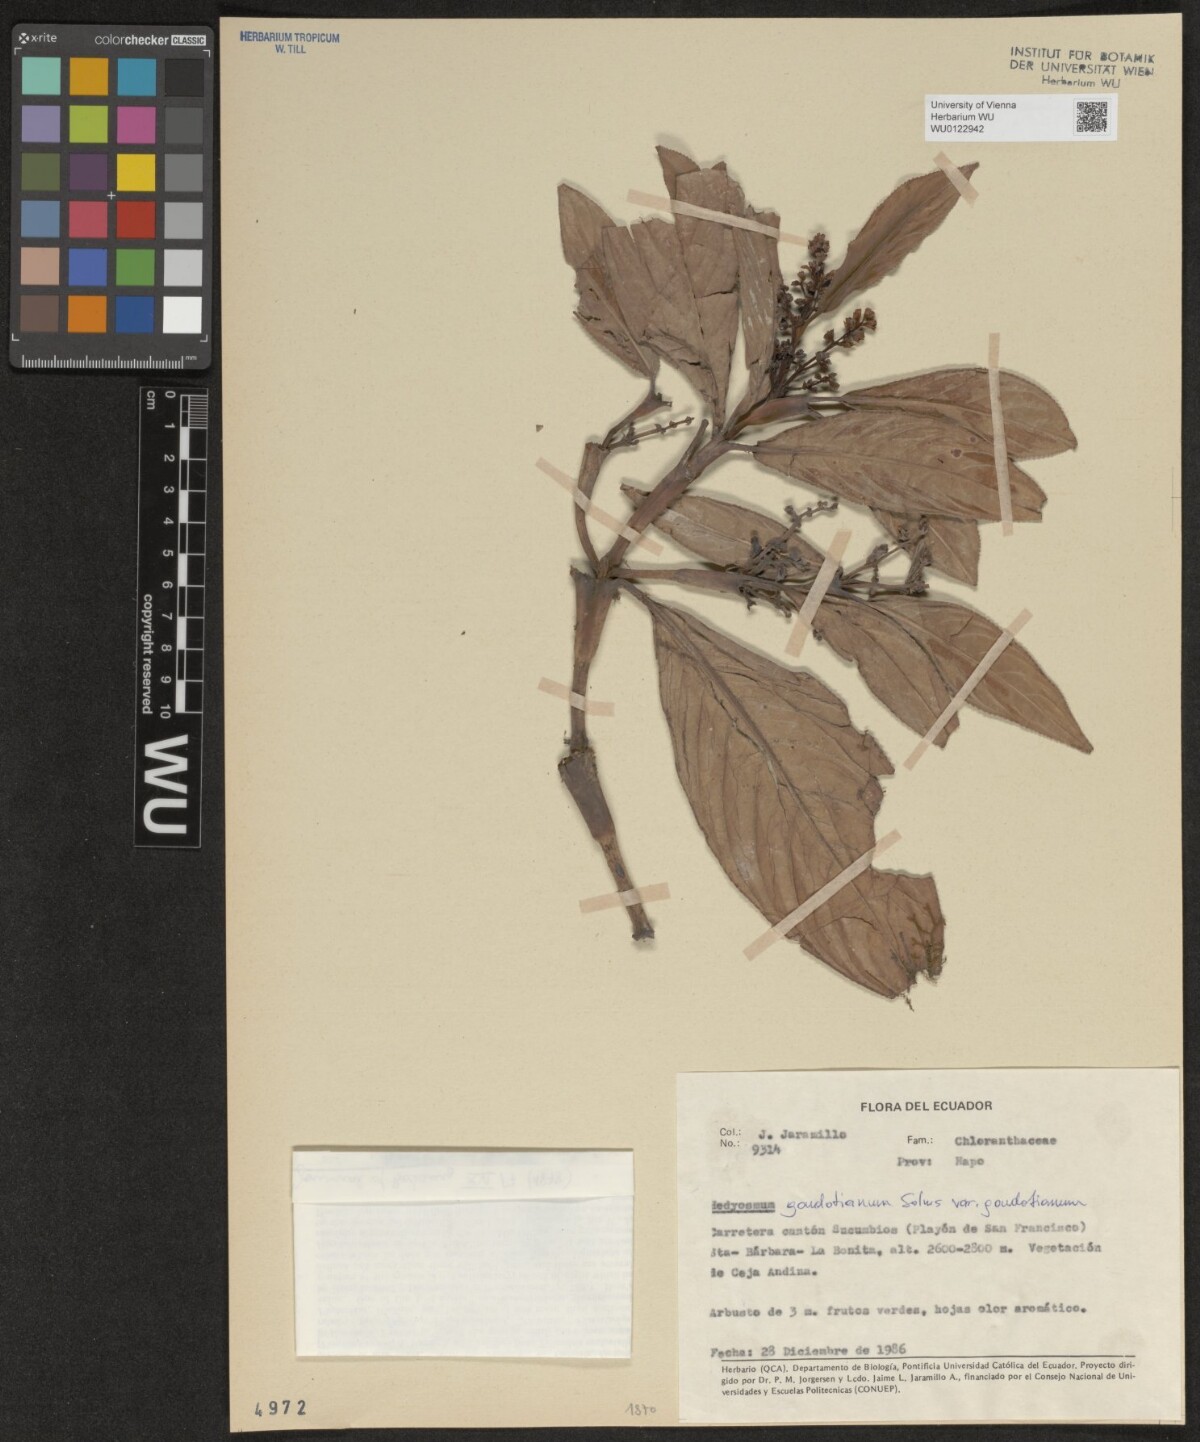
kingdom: Plantae
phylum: Tracheophyta
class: Magnoliopsida
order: Chloranthales
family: Chloranthaceae
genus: Hedyosmum
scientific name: Hedyosmum goudotianum
